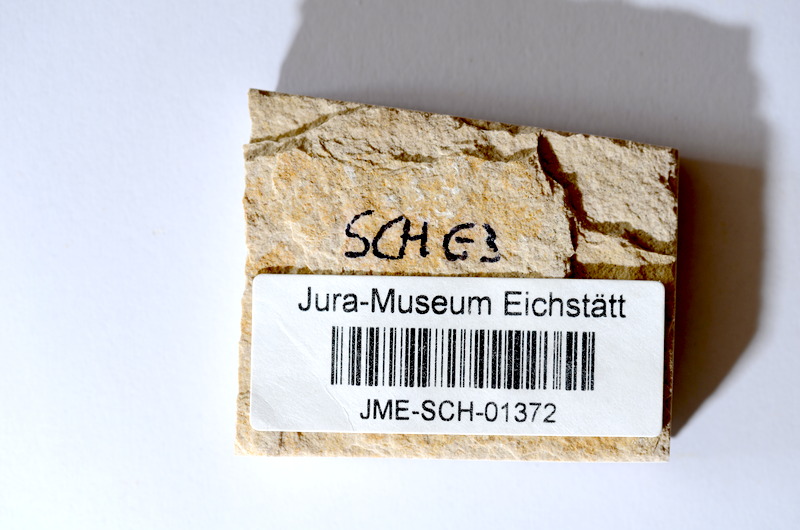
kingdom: Animalia
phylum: Chordata
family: Ascalaboidae
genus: Tharsis
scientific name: Tharsis dubius
